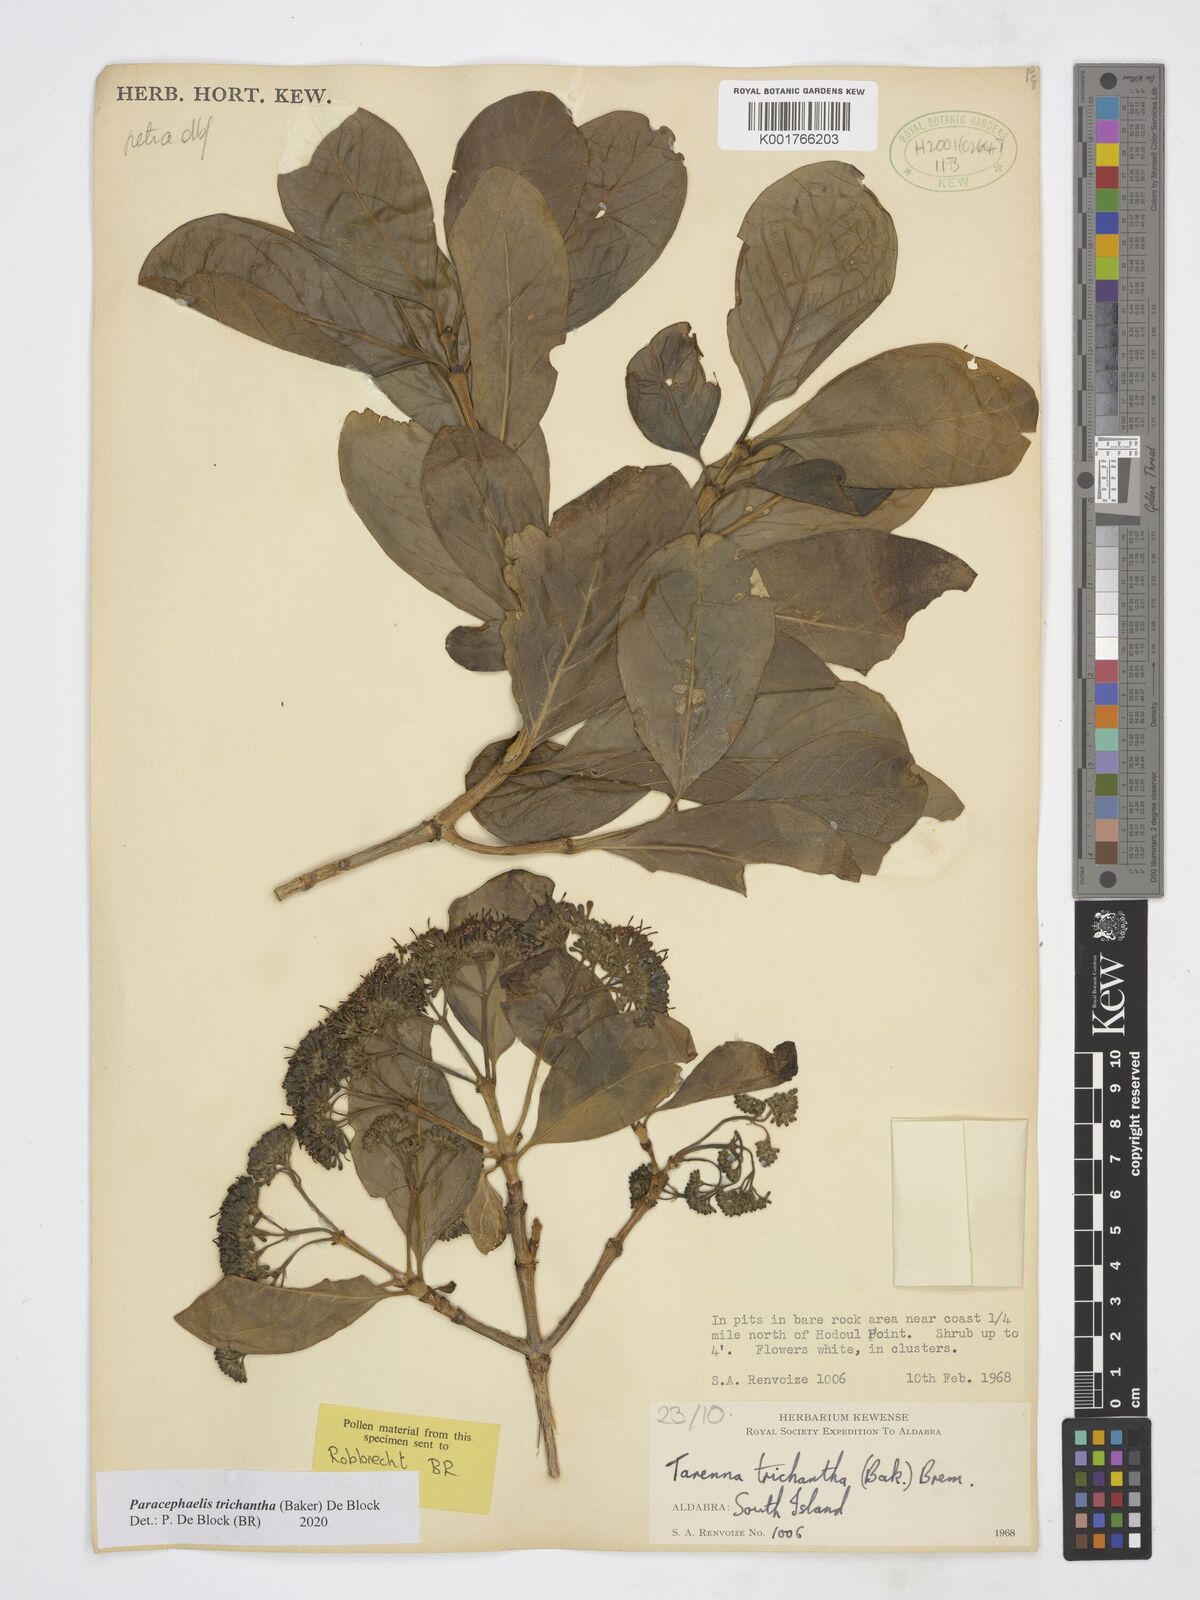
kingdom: Plantae
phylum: Tracheophyta
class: Magnoliopsida
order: Gentianales
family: Rubiaceae
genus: Paracephaelis
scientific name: Paracephaelis trichantha
